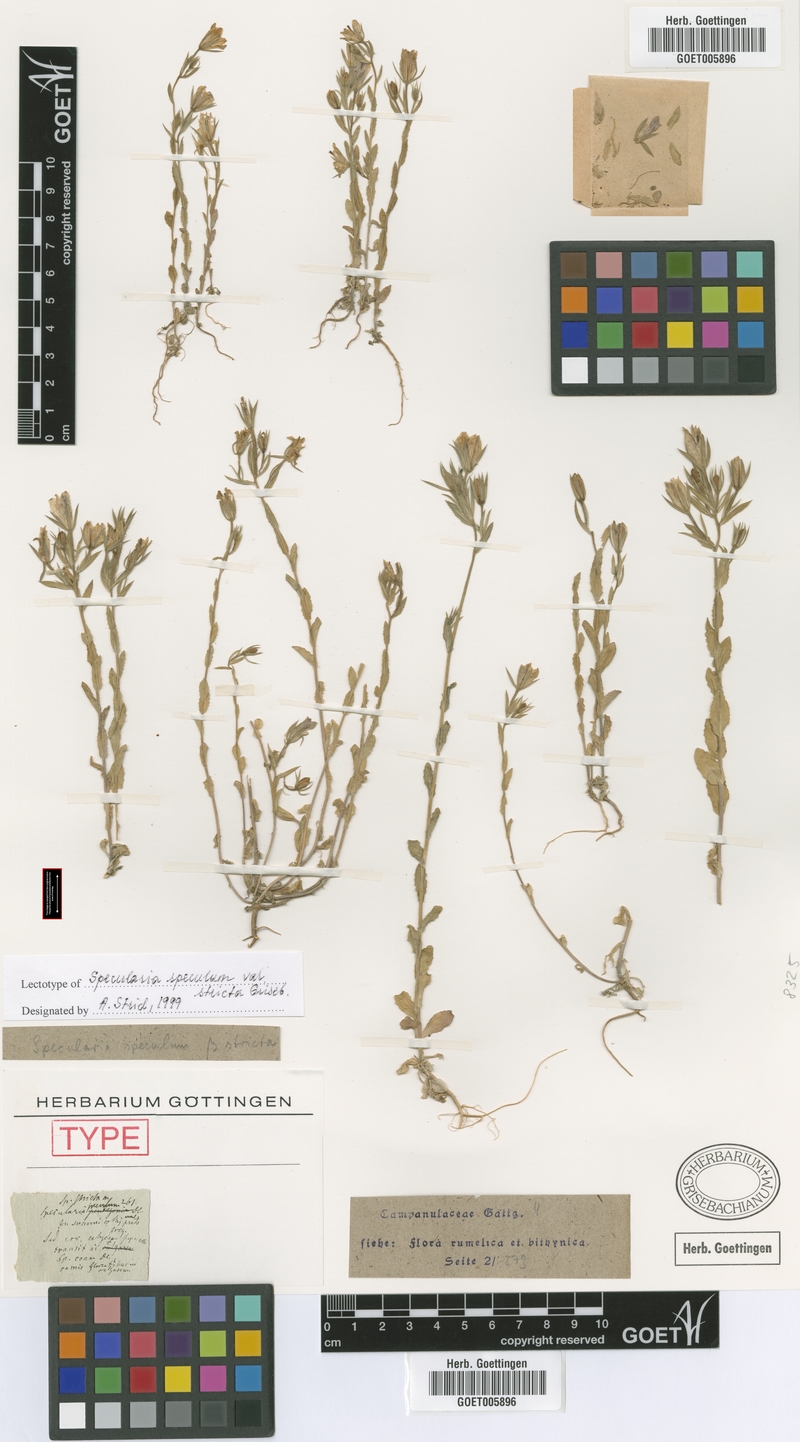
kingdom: Plantae
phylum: Tracheophyta
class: Magnoliopsida
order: Asterales
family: Campanulaceae
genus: Legousia
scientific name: Legousia speculum-veneris
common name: Large venus's-looking-glass
